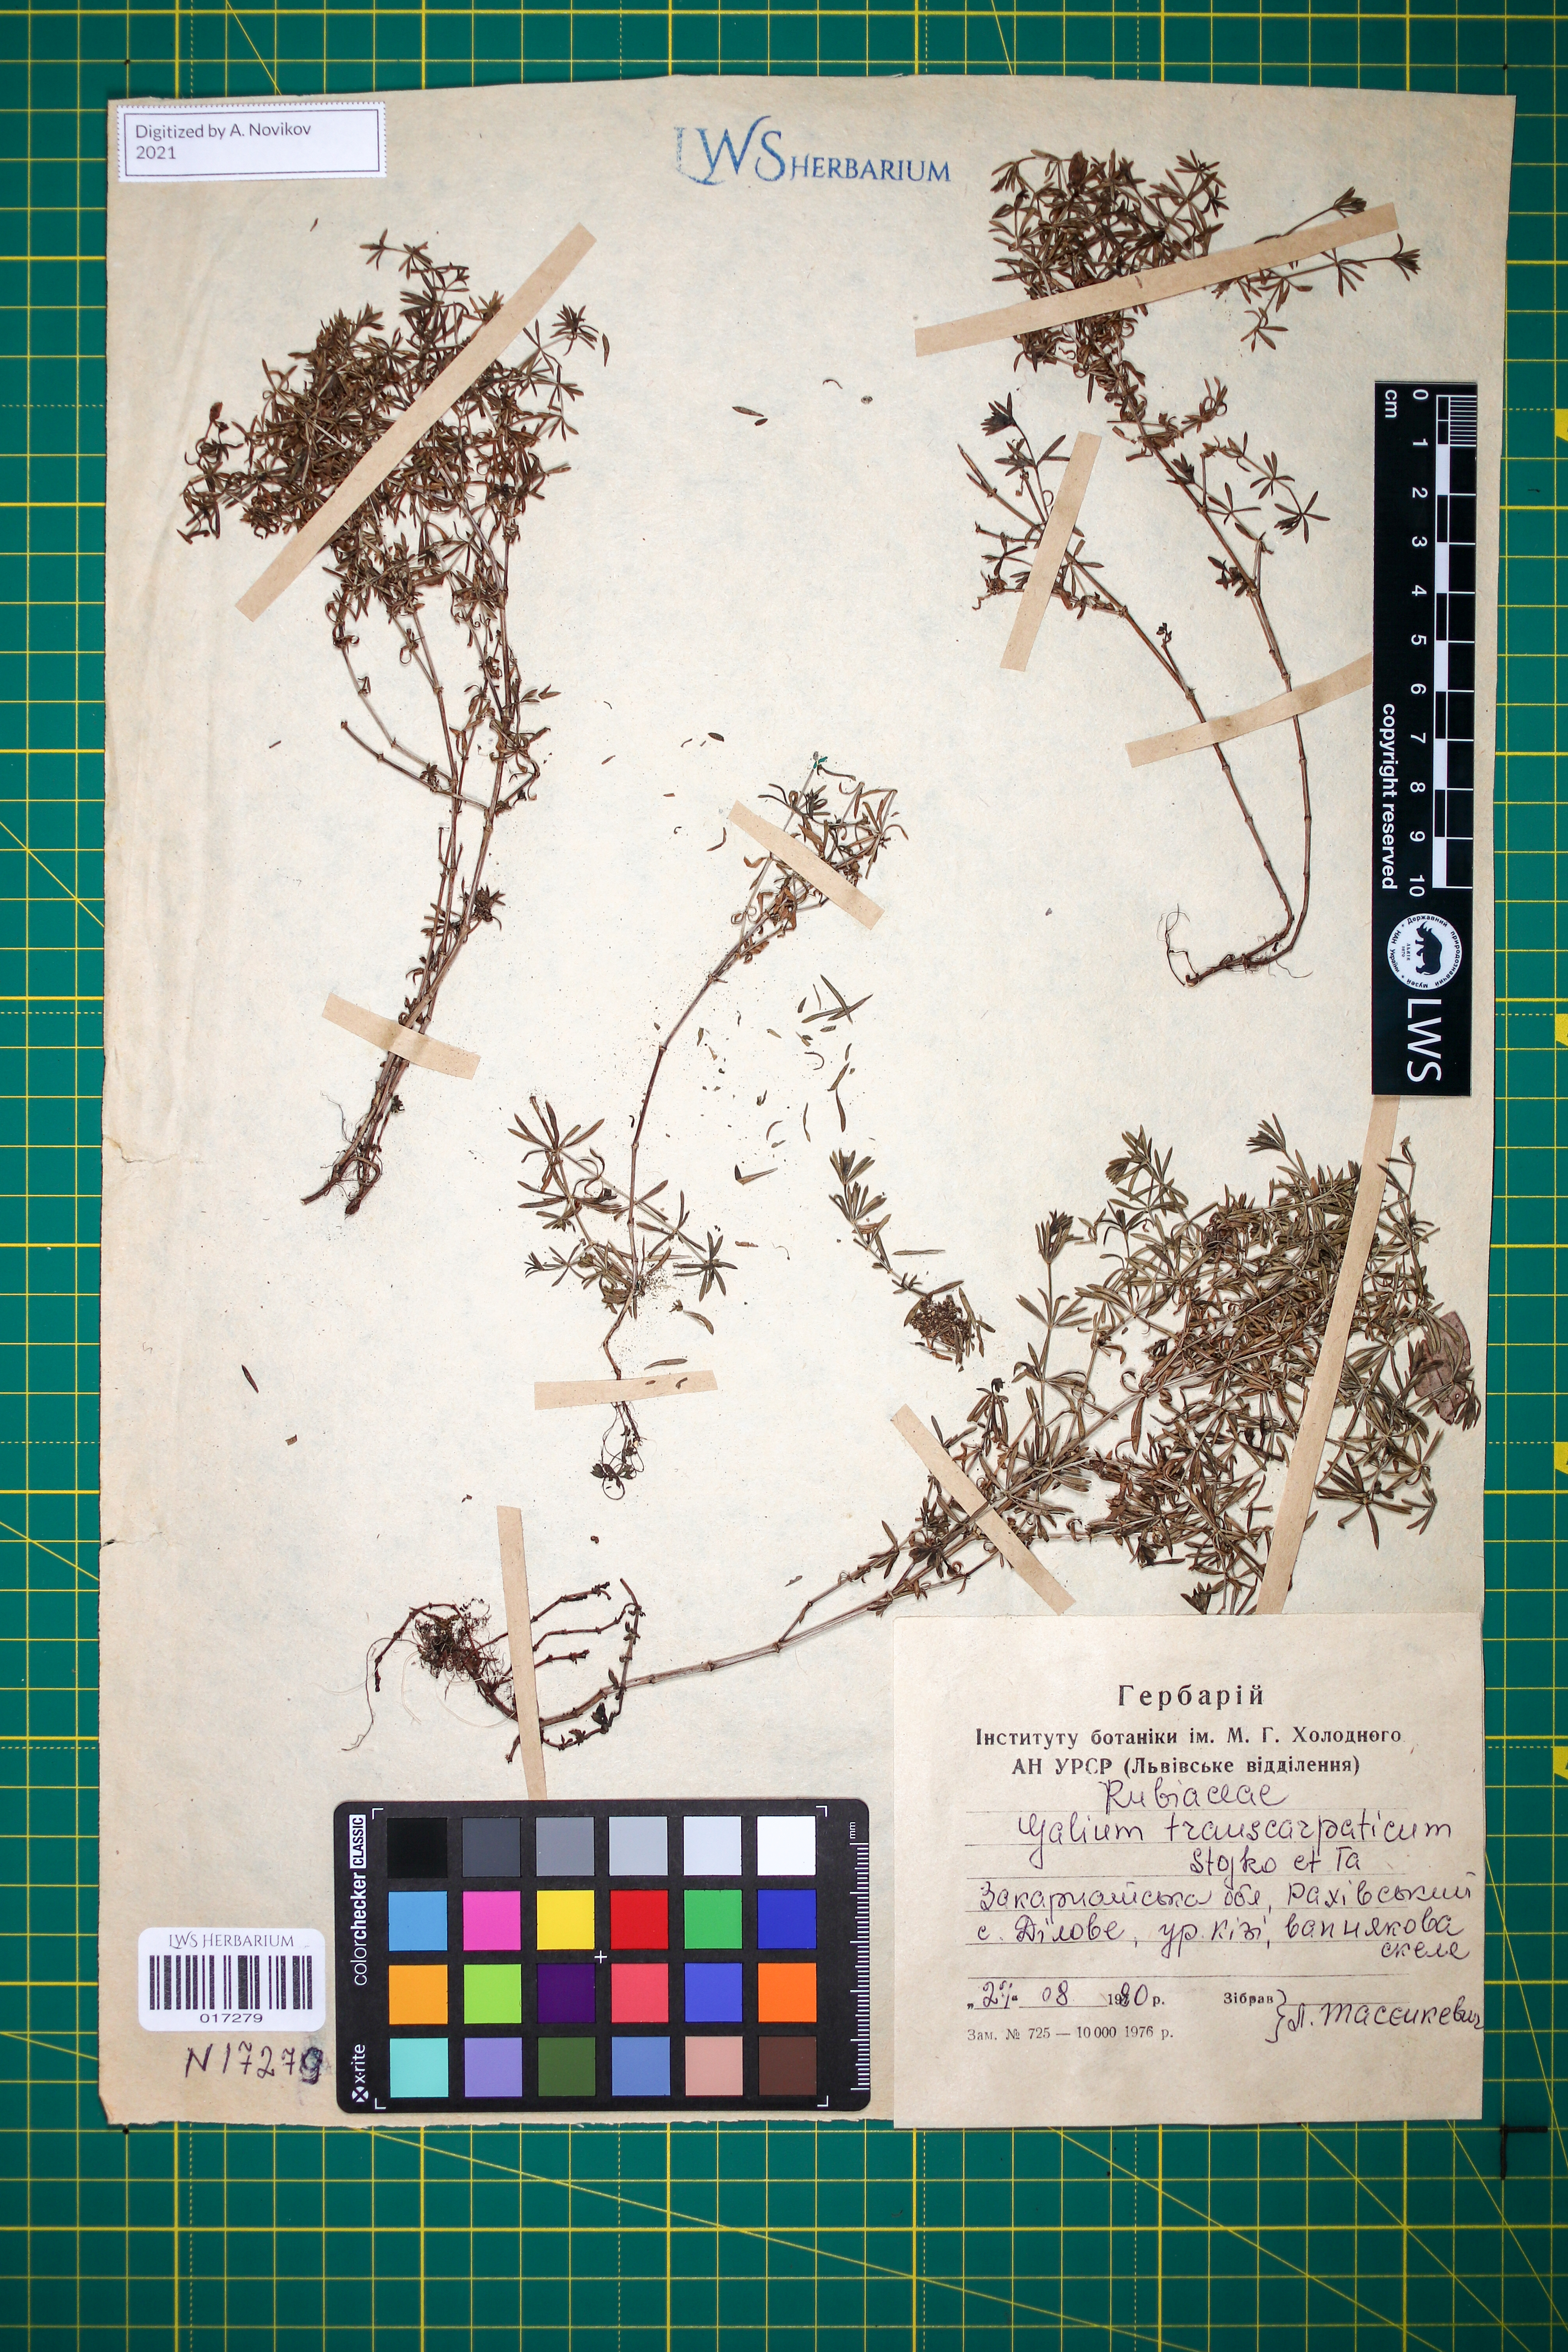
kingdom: Plantae
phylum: Tracheophyta
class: Magnoliopsida
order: Gentianales
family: Rubiaceae
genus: Galium
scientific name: Galium transcarpaticum
